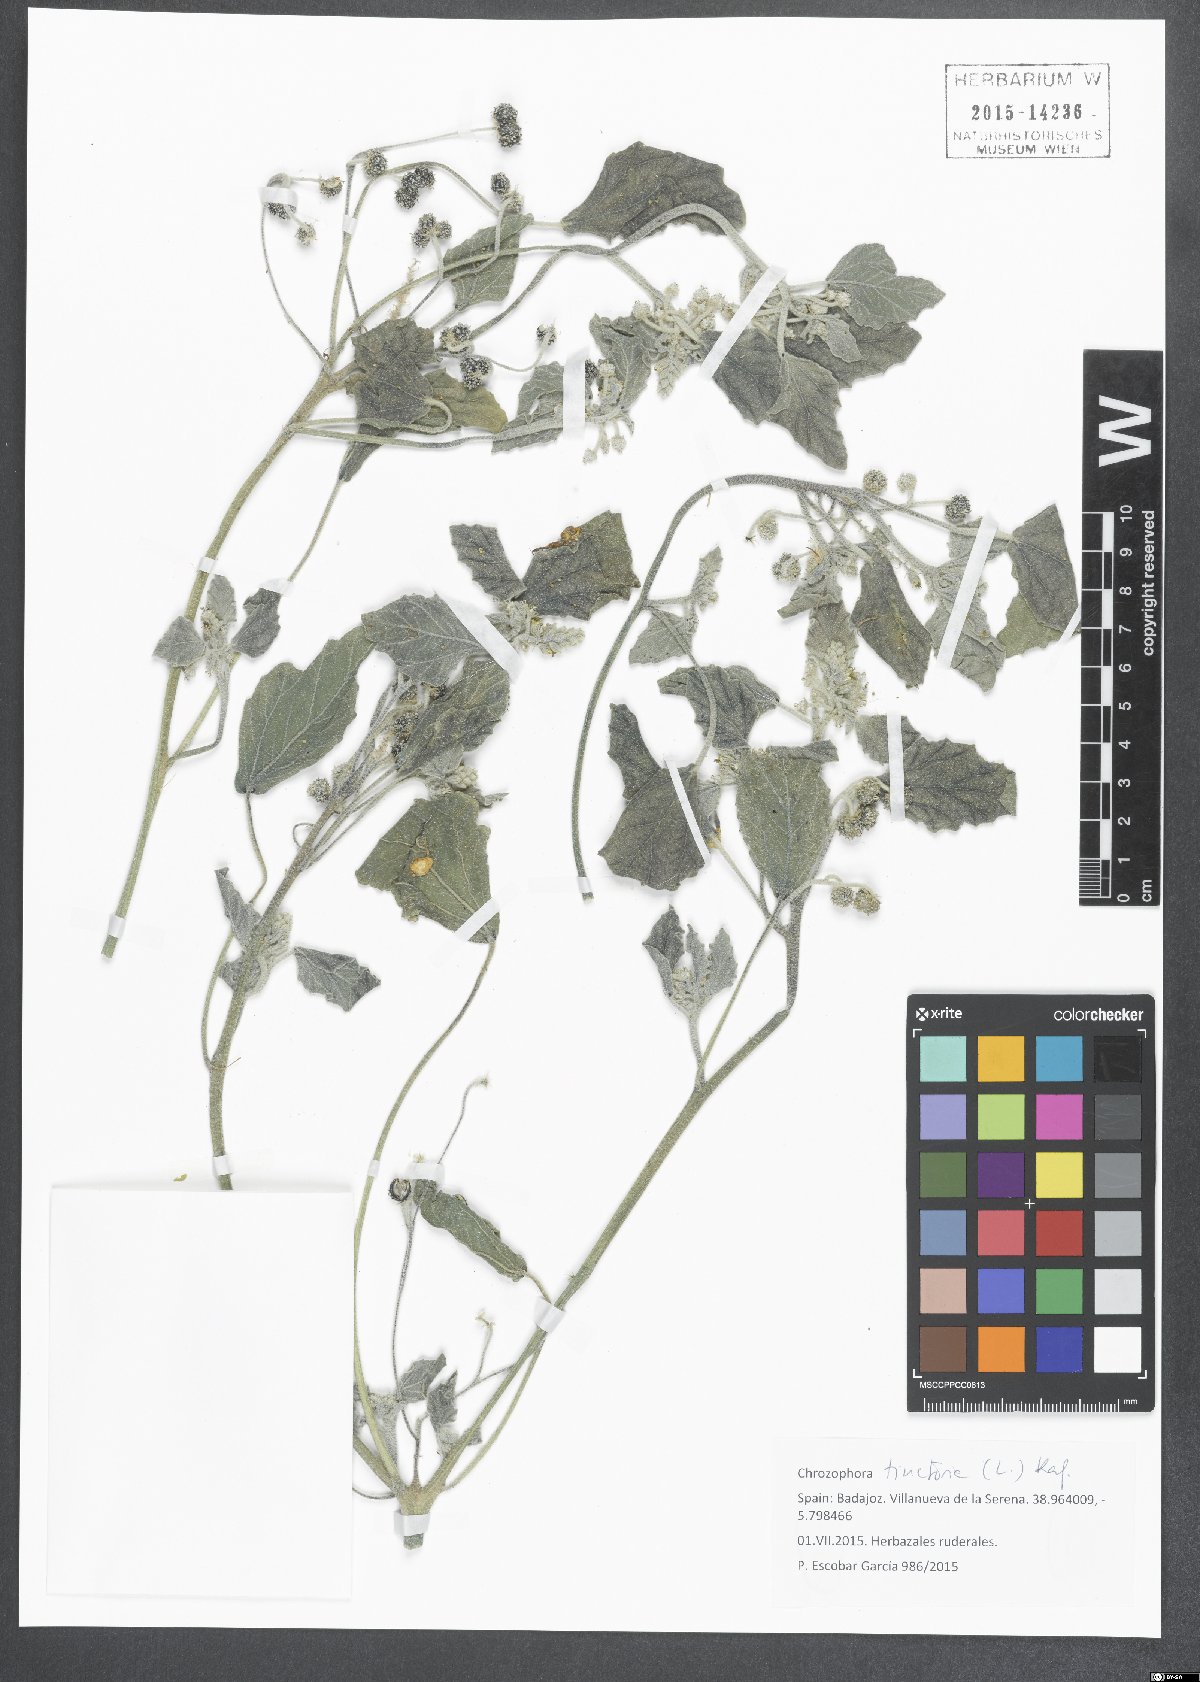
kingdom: Plantae
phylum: Tracheophyta
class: Magnoliopsida
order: Malpighiales
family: Euphorbiaceae
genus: Chrozophora
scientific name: Chrozophora tinctoria
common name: Dyer's litmus
